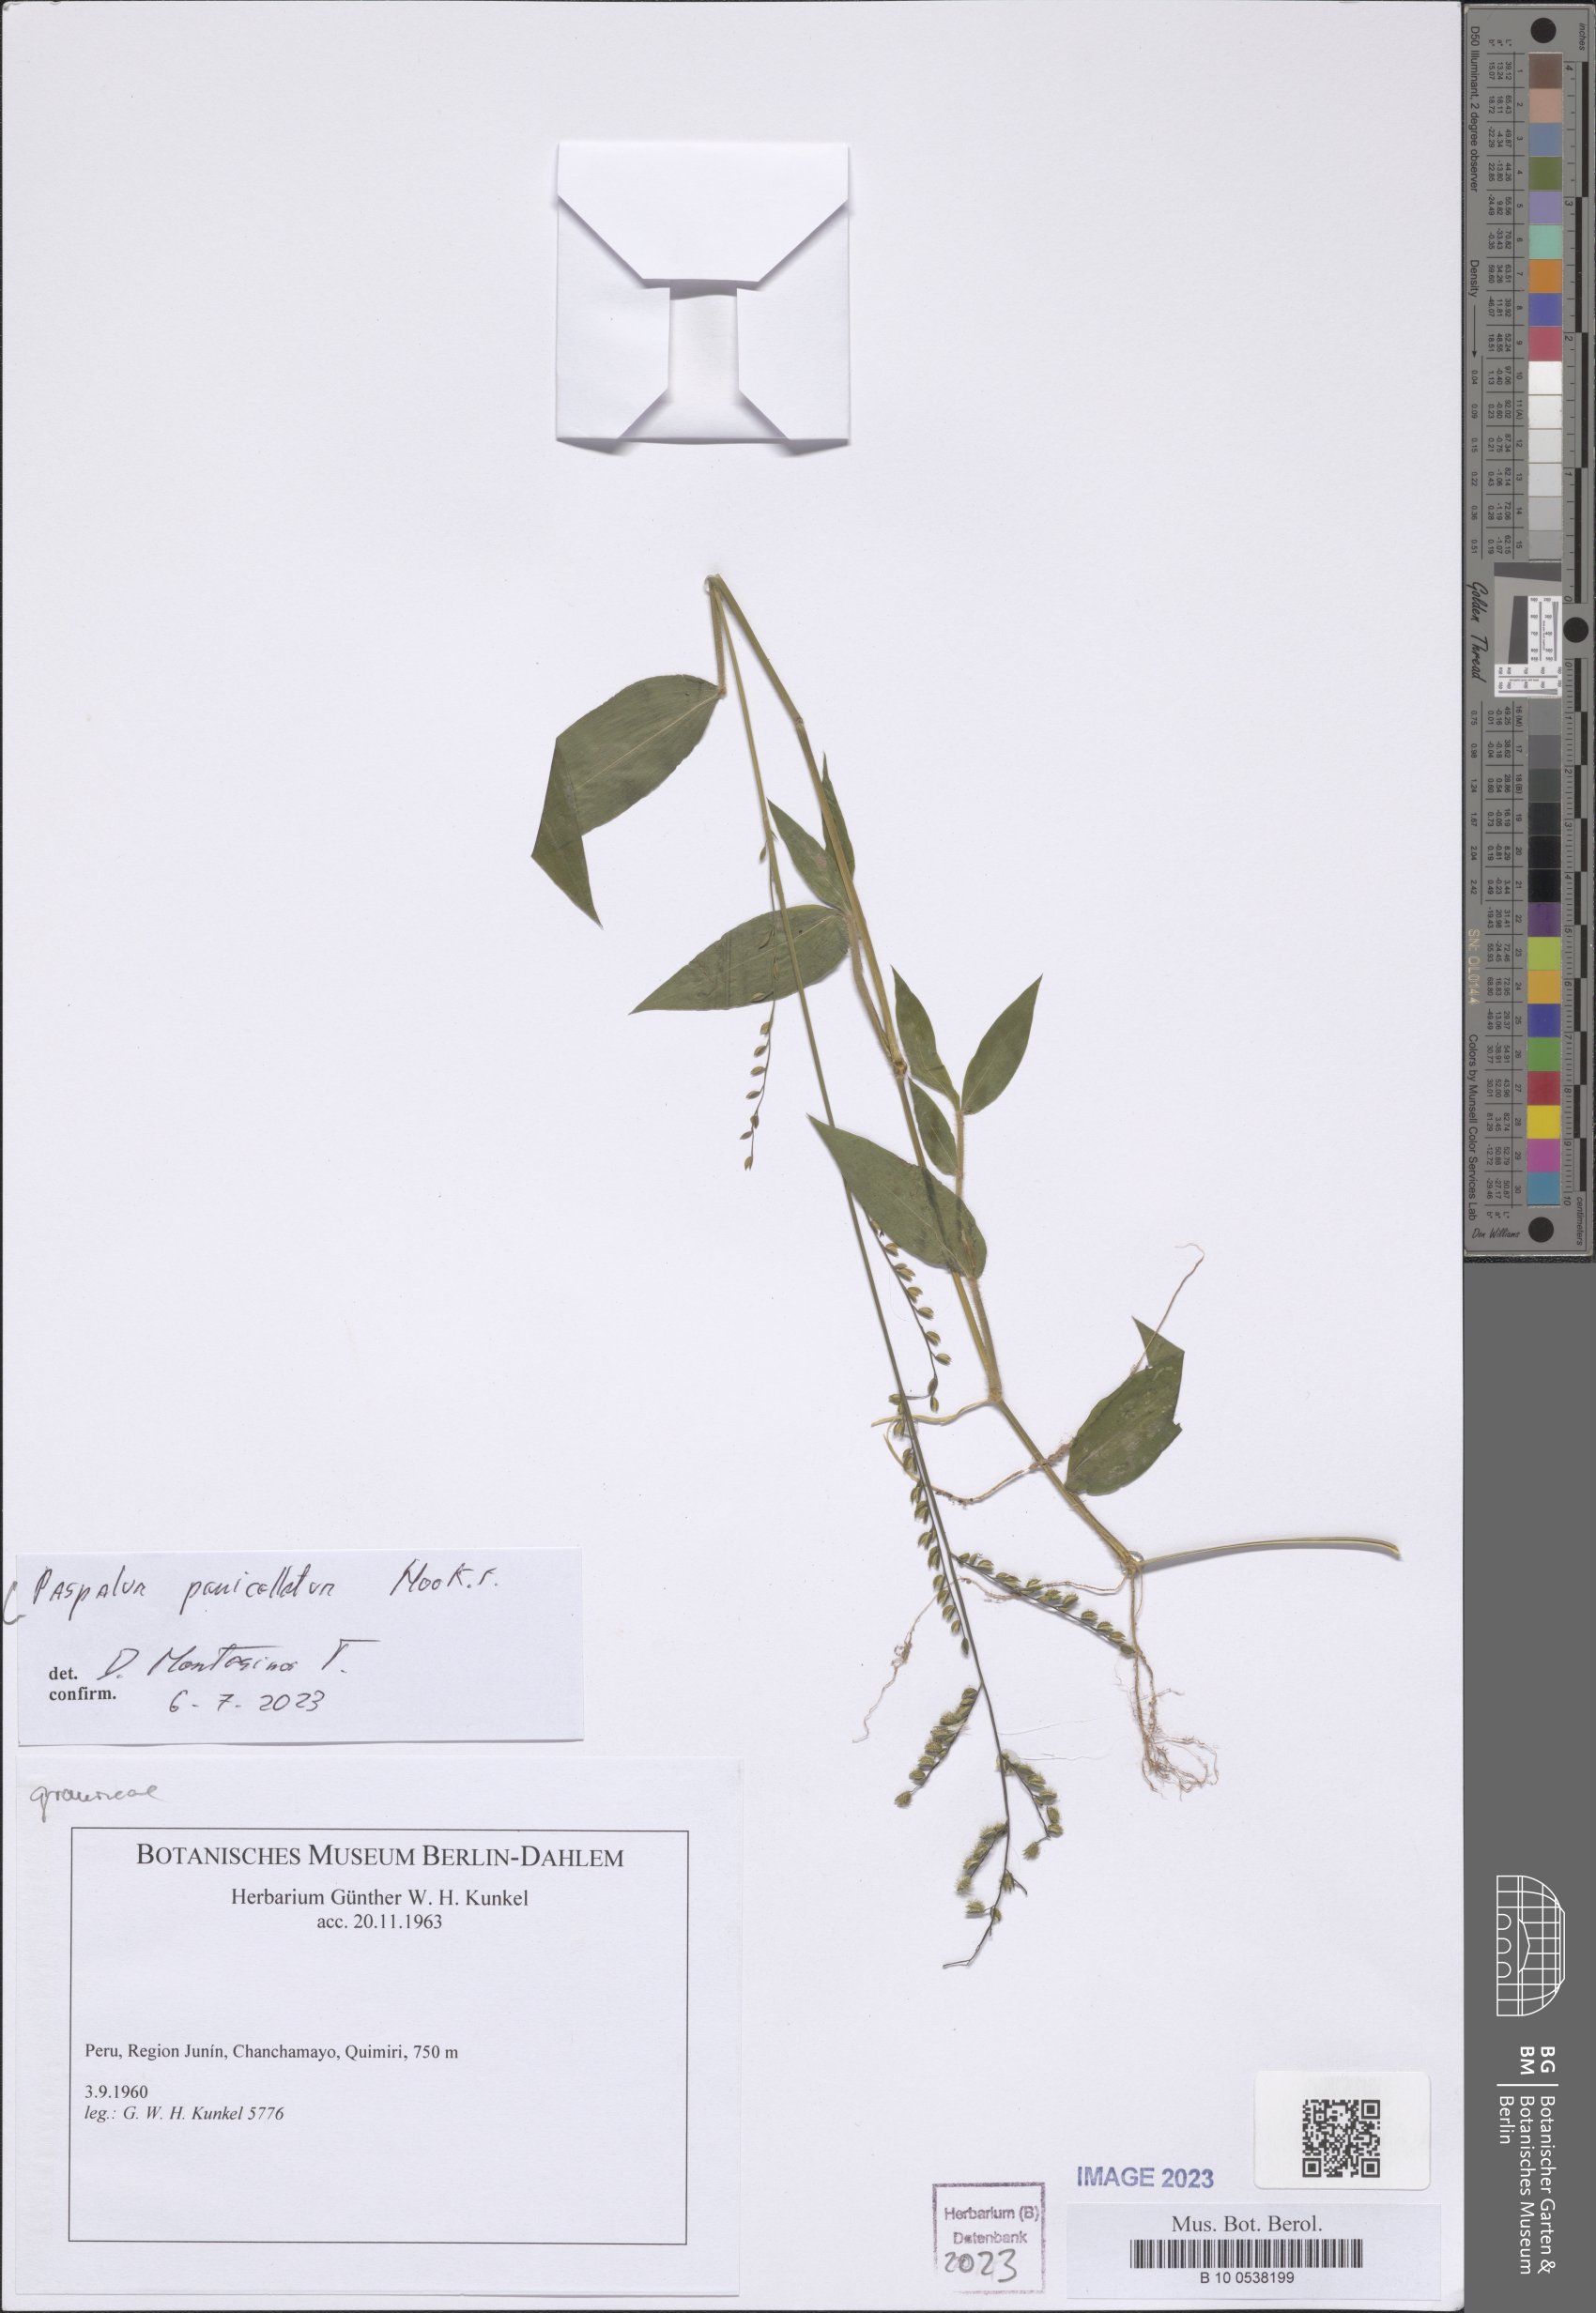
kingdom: Plantae
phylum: Tracheophyta
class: Liliopsida
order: Poales
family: Poaceae
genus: Paspalum
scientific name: Paspalum penicillatum
